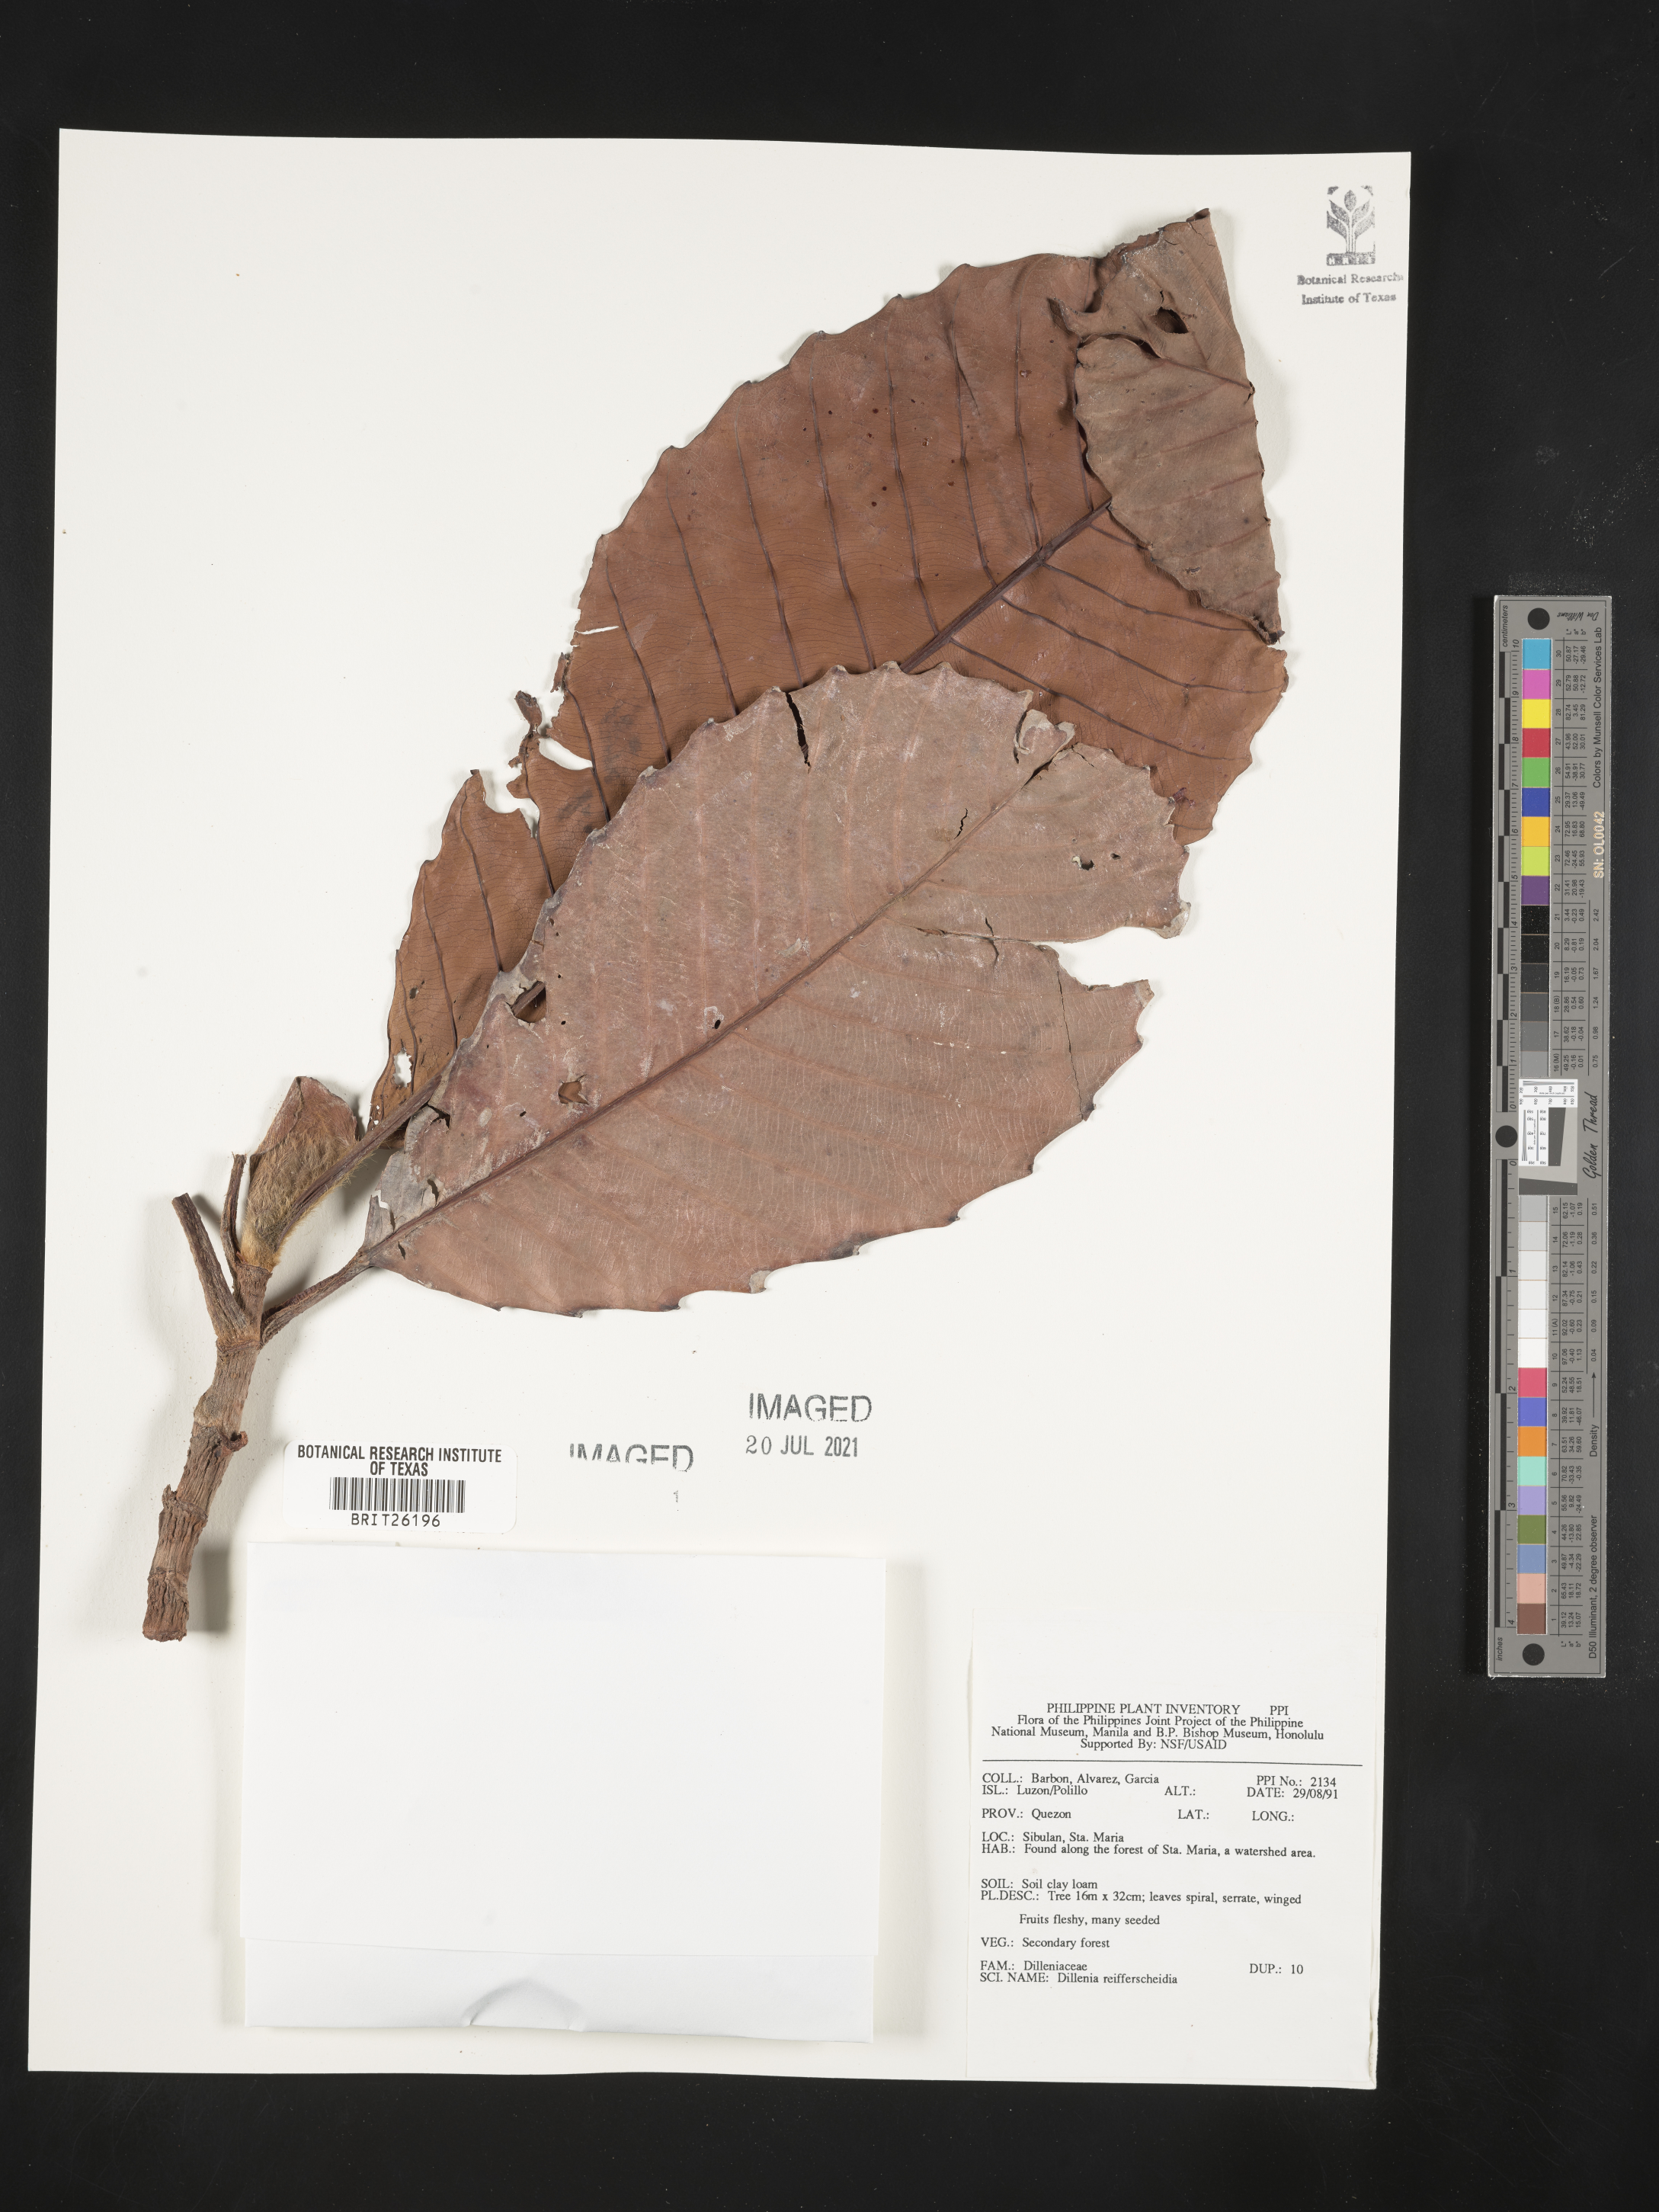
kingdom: Plantae
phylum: Tracheophyta
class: Magnoliopsida
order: Dilleniales
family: Dilleniaceae
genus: Dillenia
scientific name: Dillenia reifferscheidia
